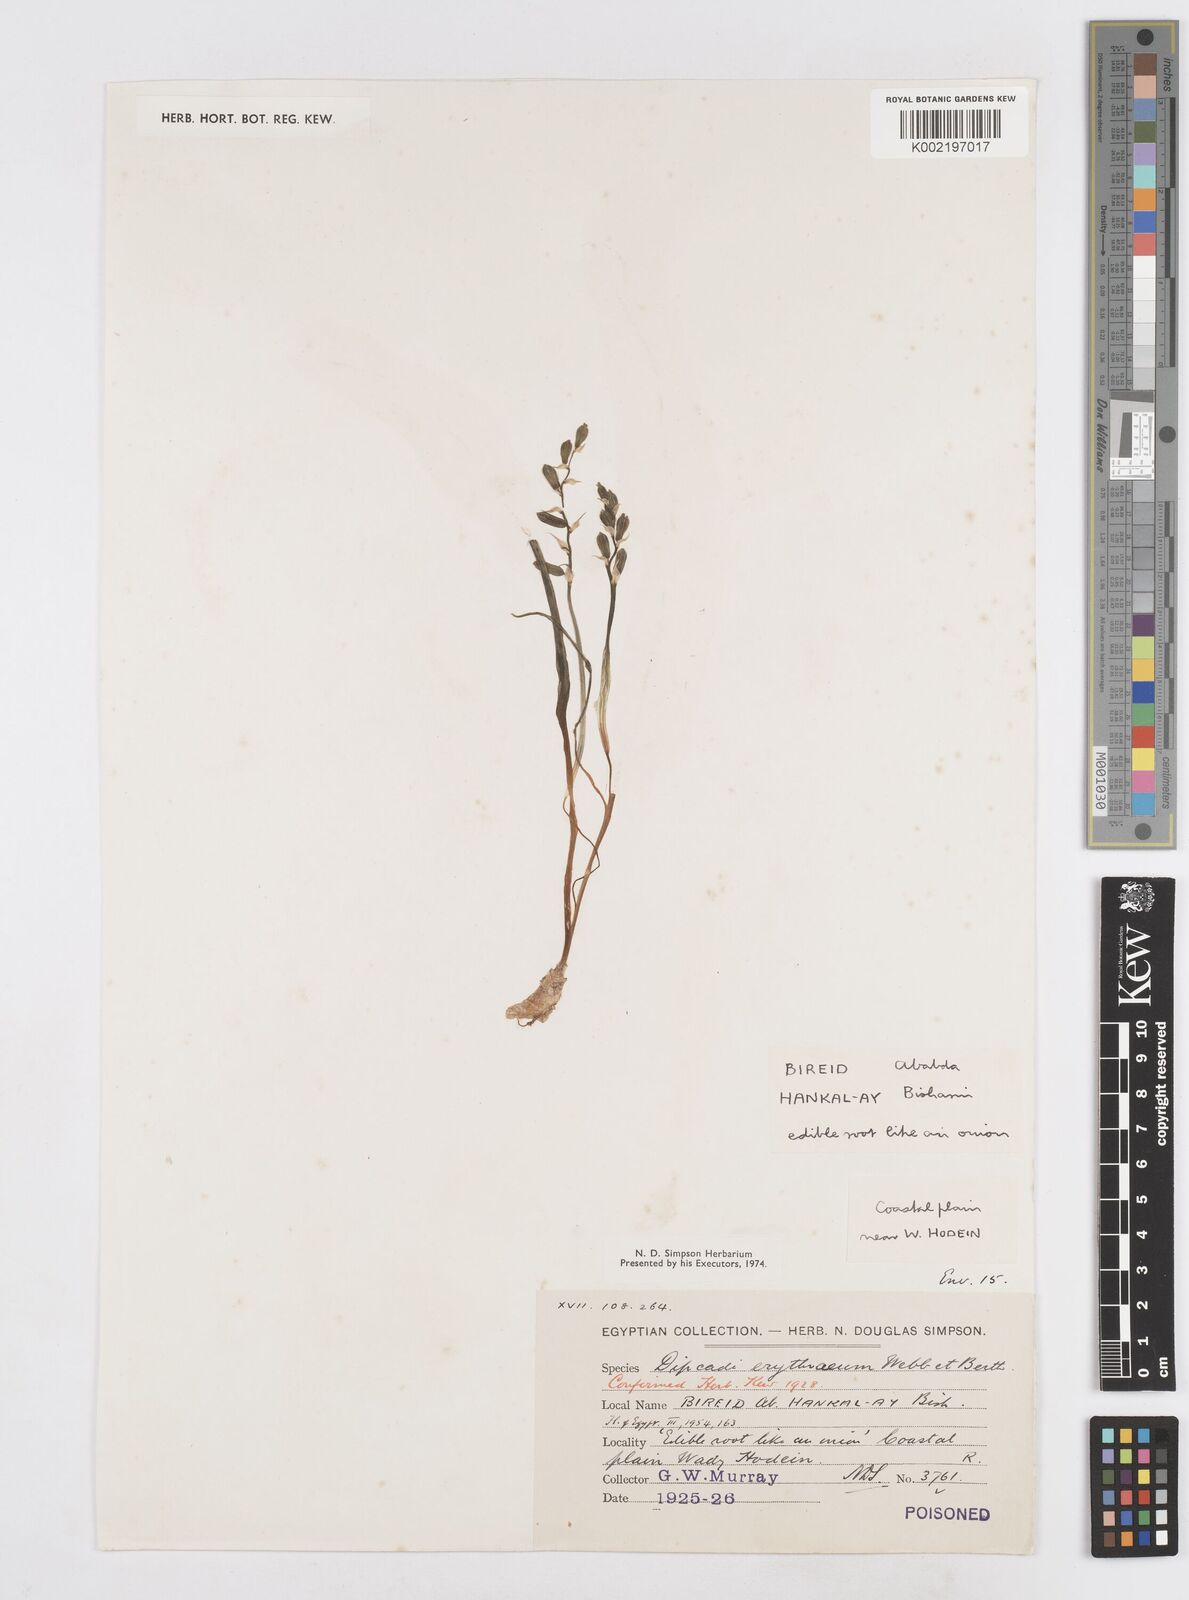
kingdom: Plantae
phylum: Tracheophyta
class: Liliopsida
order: Asparagales
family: Asparagaceae
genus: Dipcadi
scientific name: Dipcadi erythraeum
